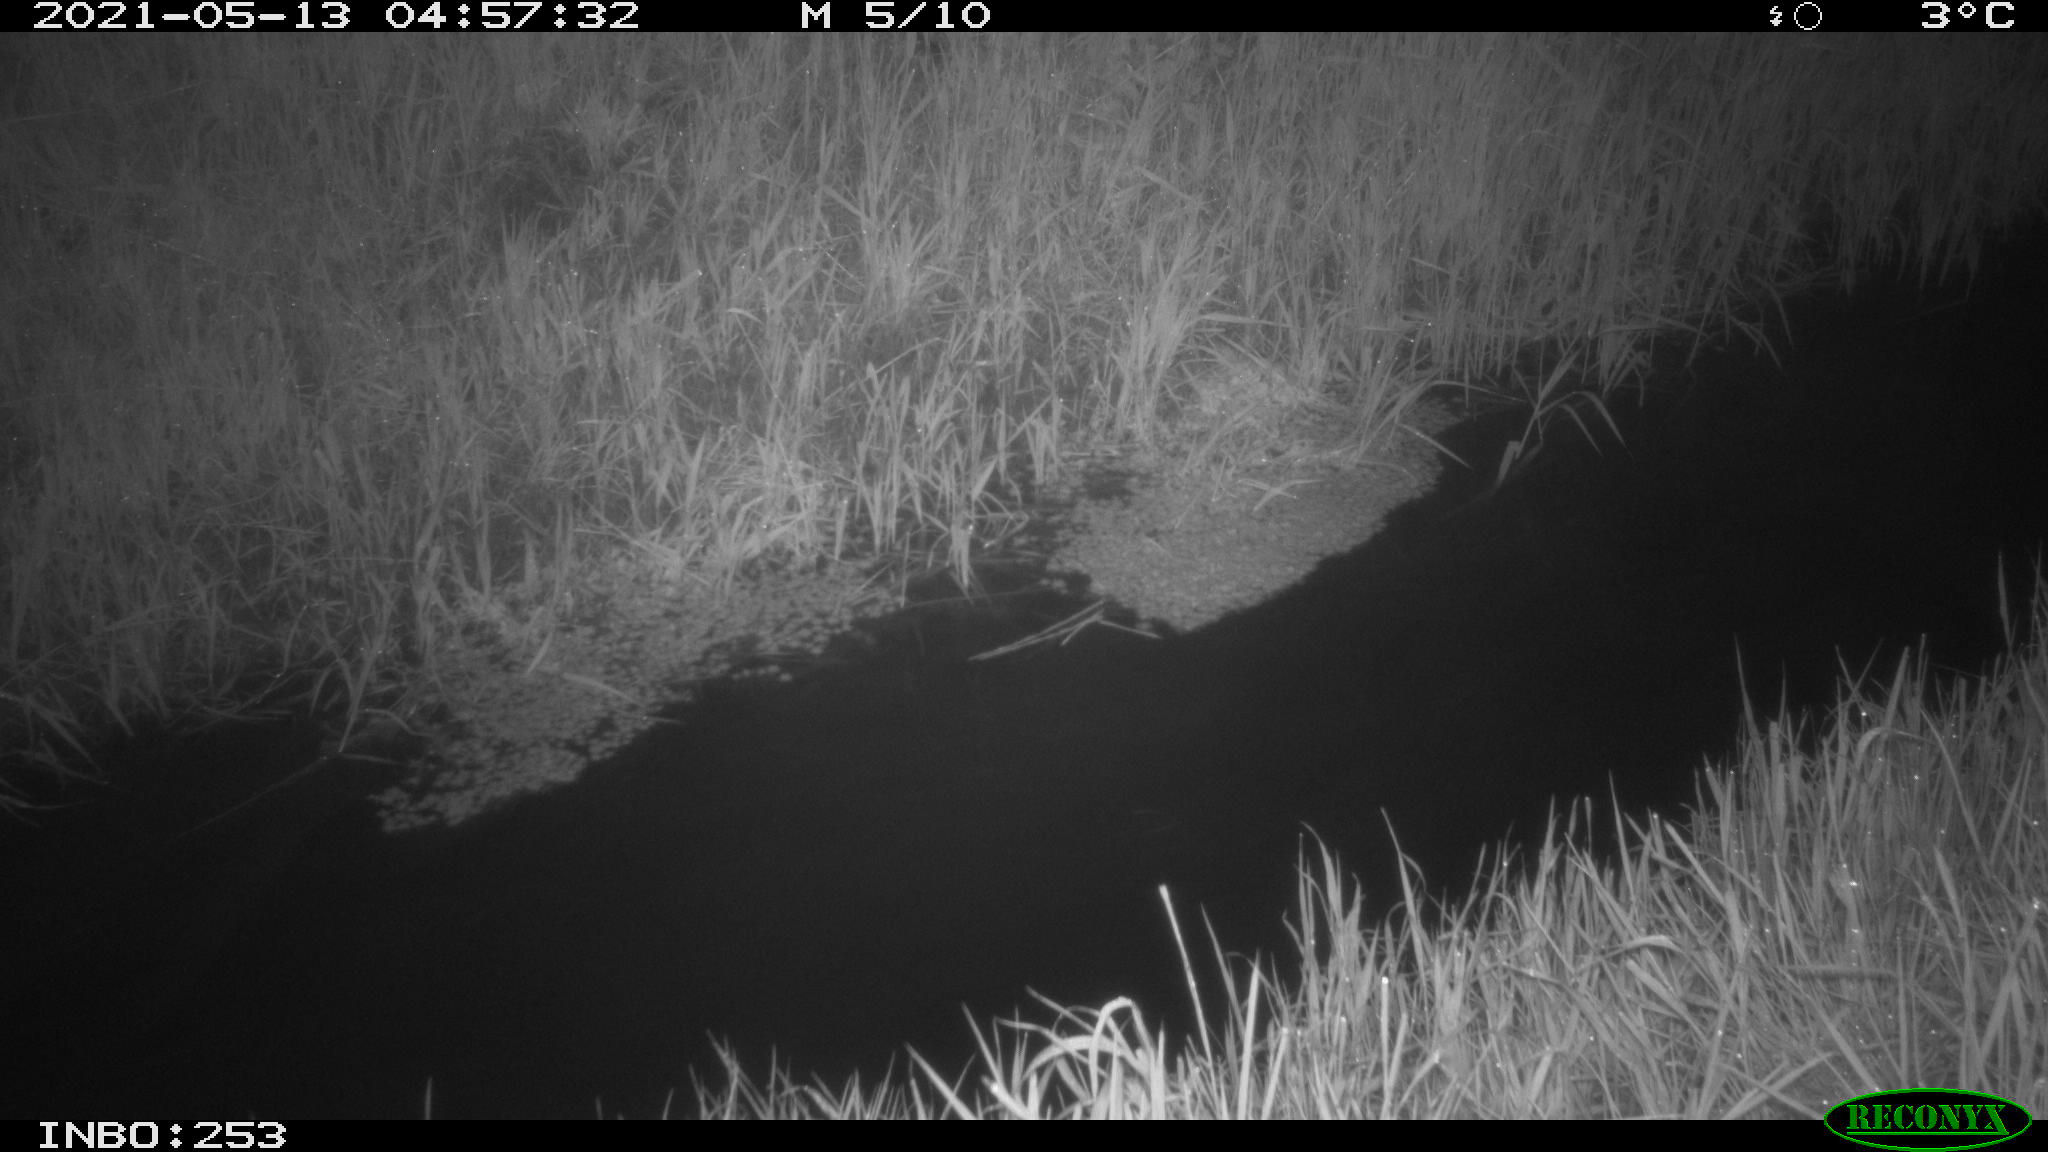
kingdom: Animalia
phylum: Chordata
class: Aves
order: Anseriformes
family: Anatidae
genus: Anas
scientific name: Anas platyrhynchos
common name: Mallard
